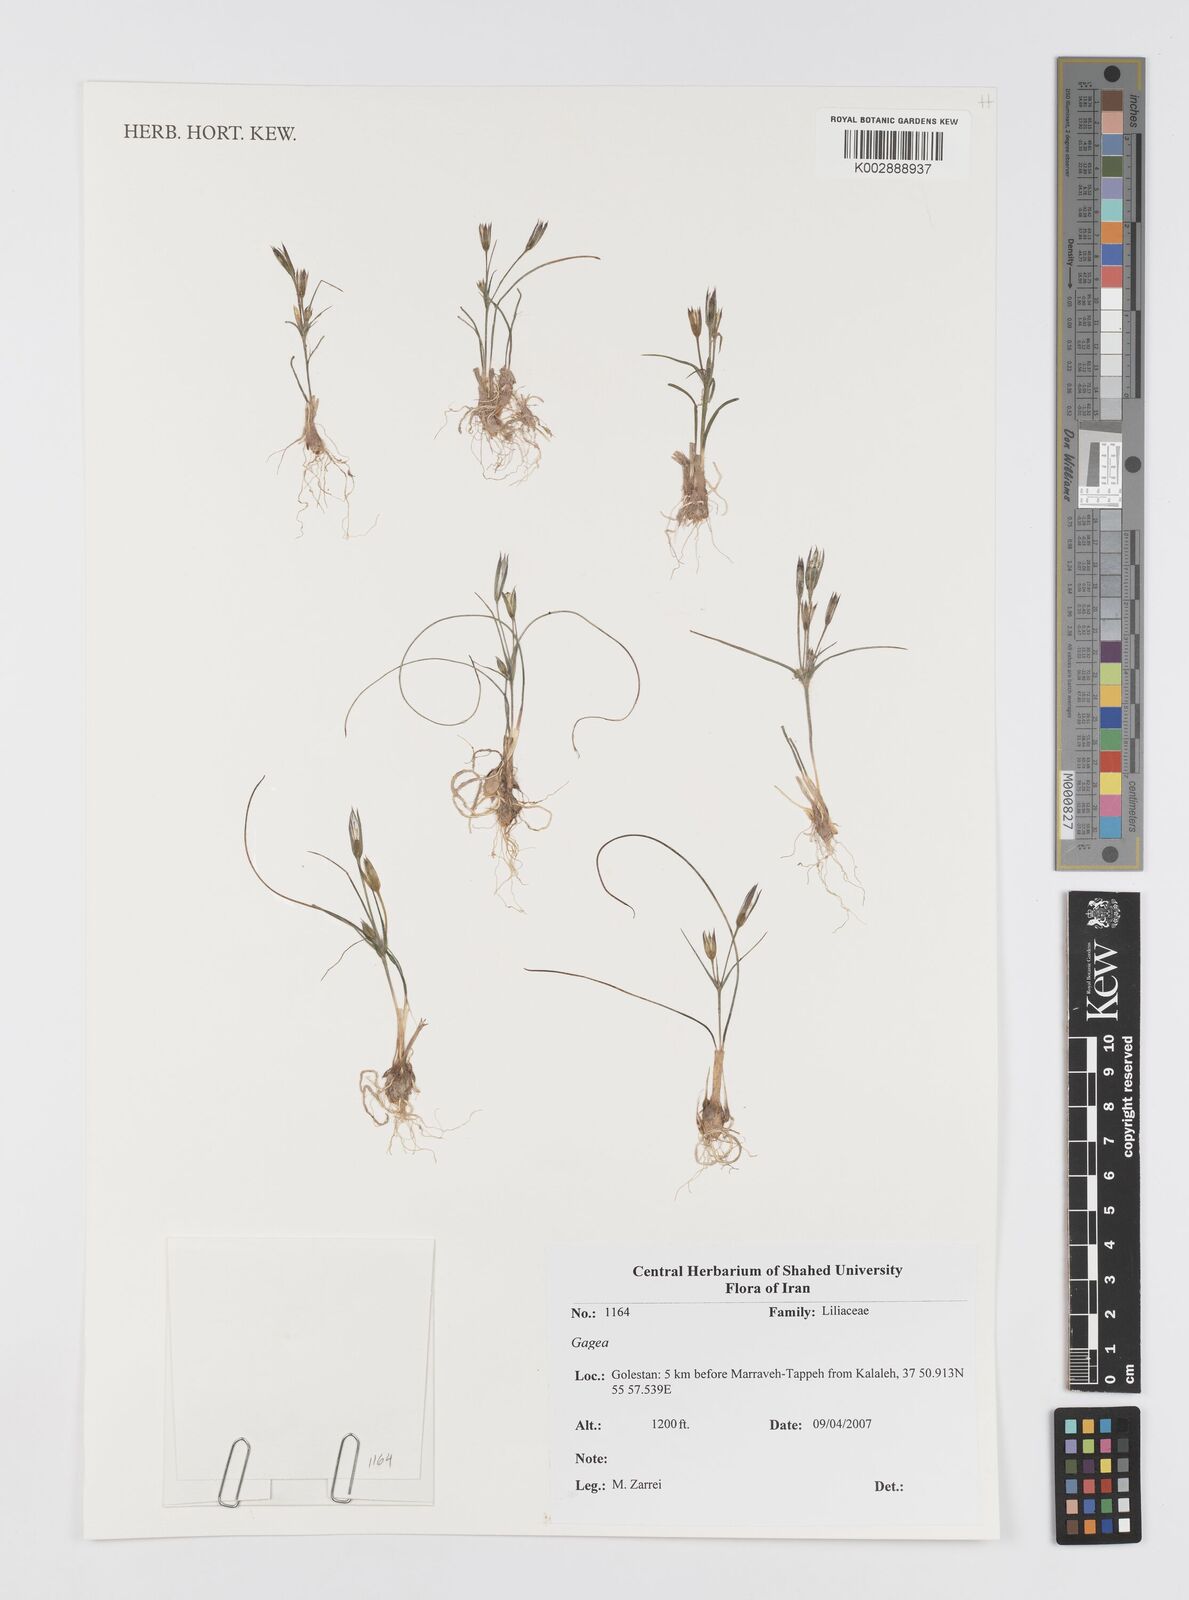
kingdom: Plantae
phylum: Tracheophyta
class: Liliopsida
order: Liliales
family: Liliaceae
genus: Gagea
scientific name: Gagea
